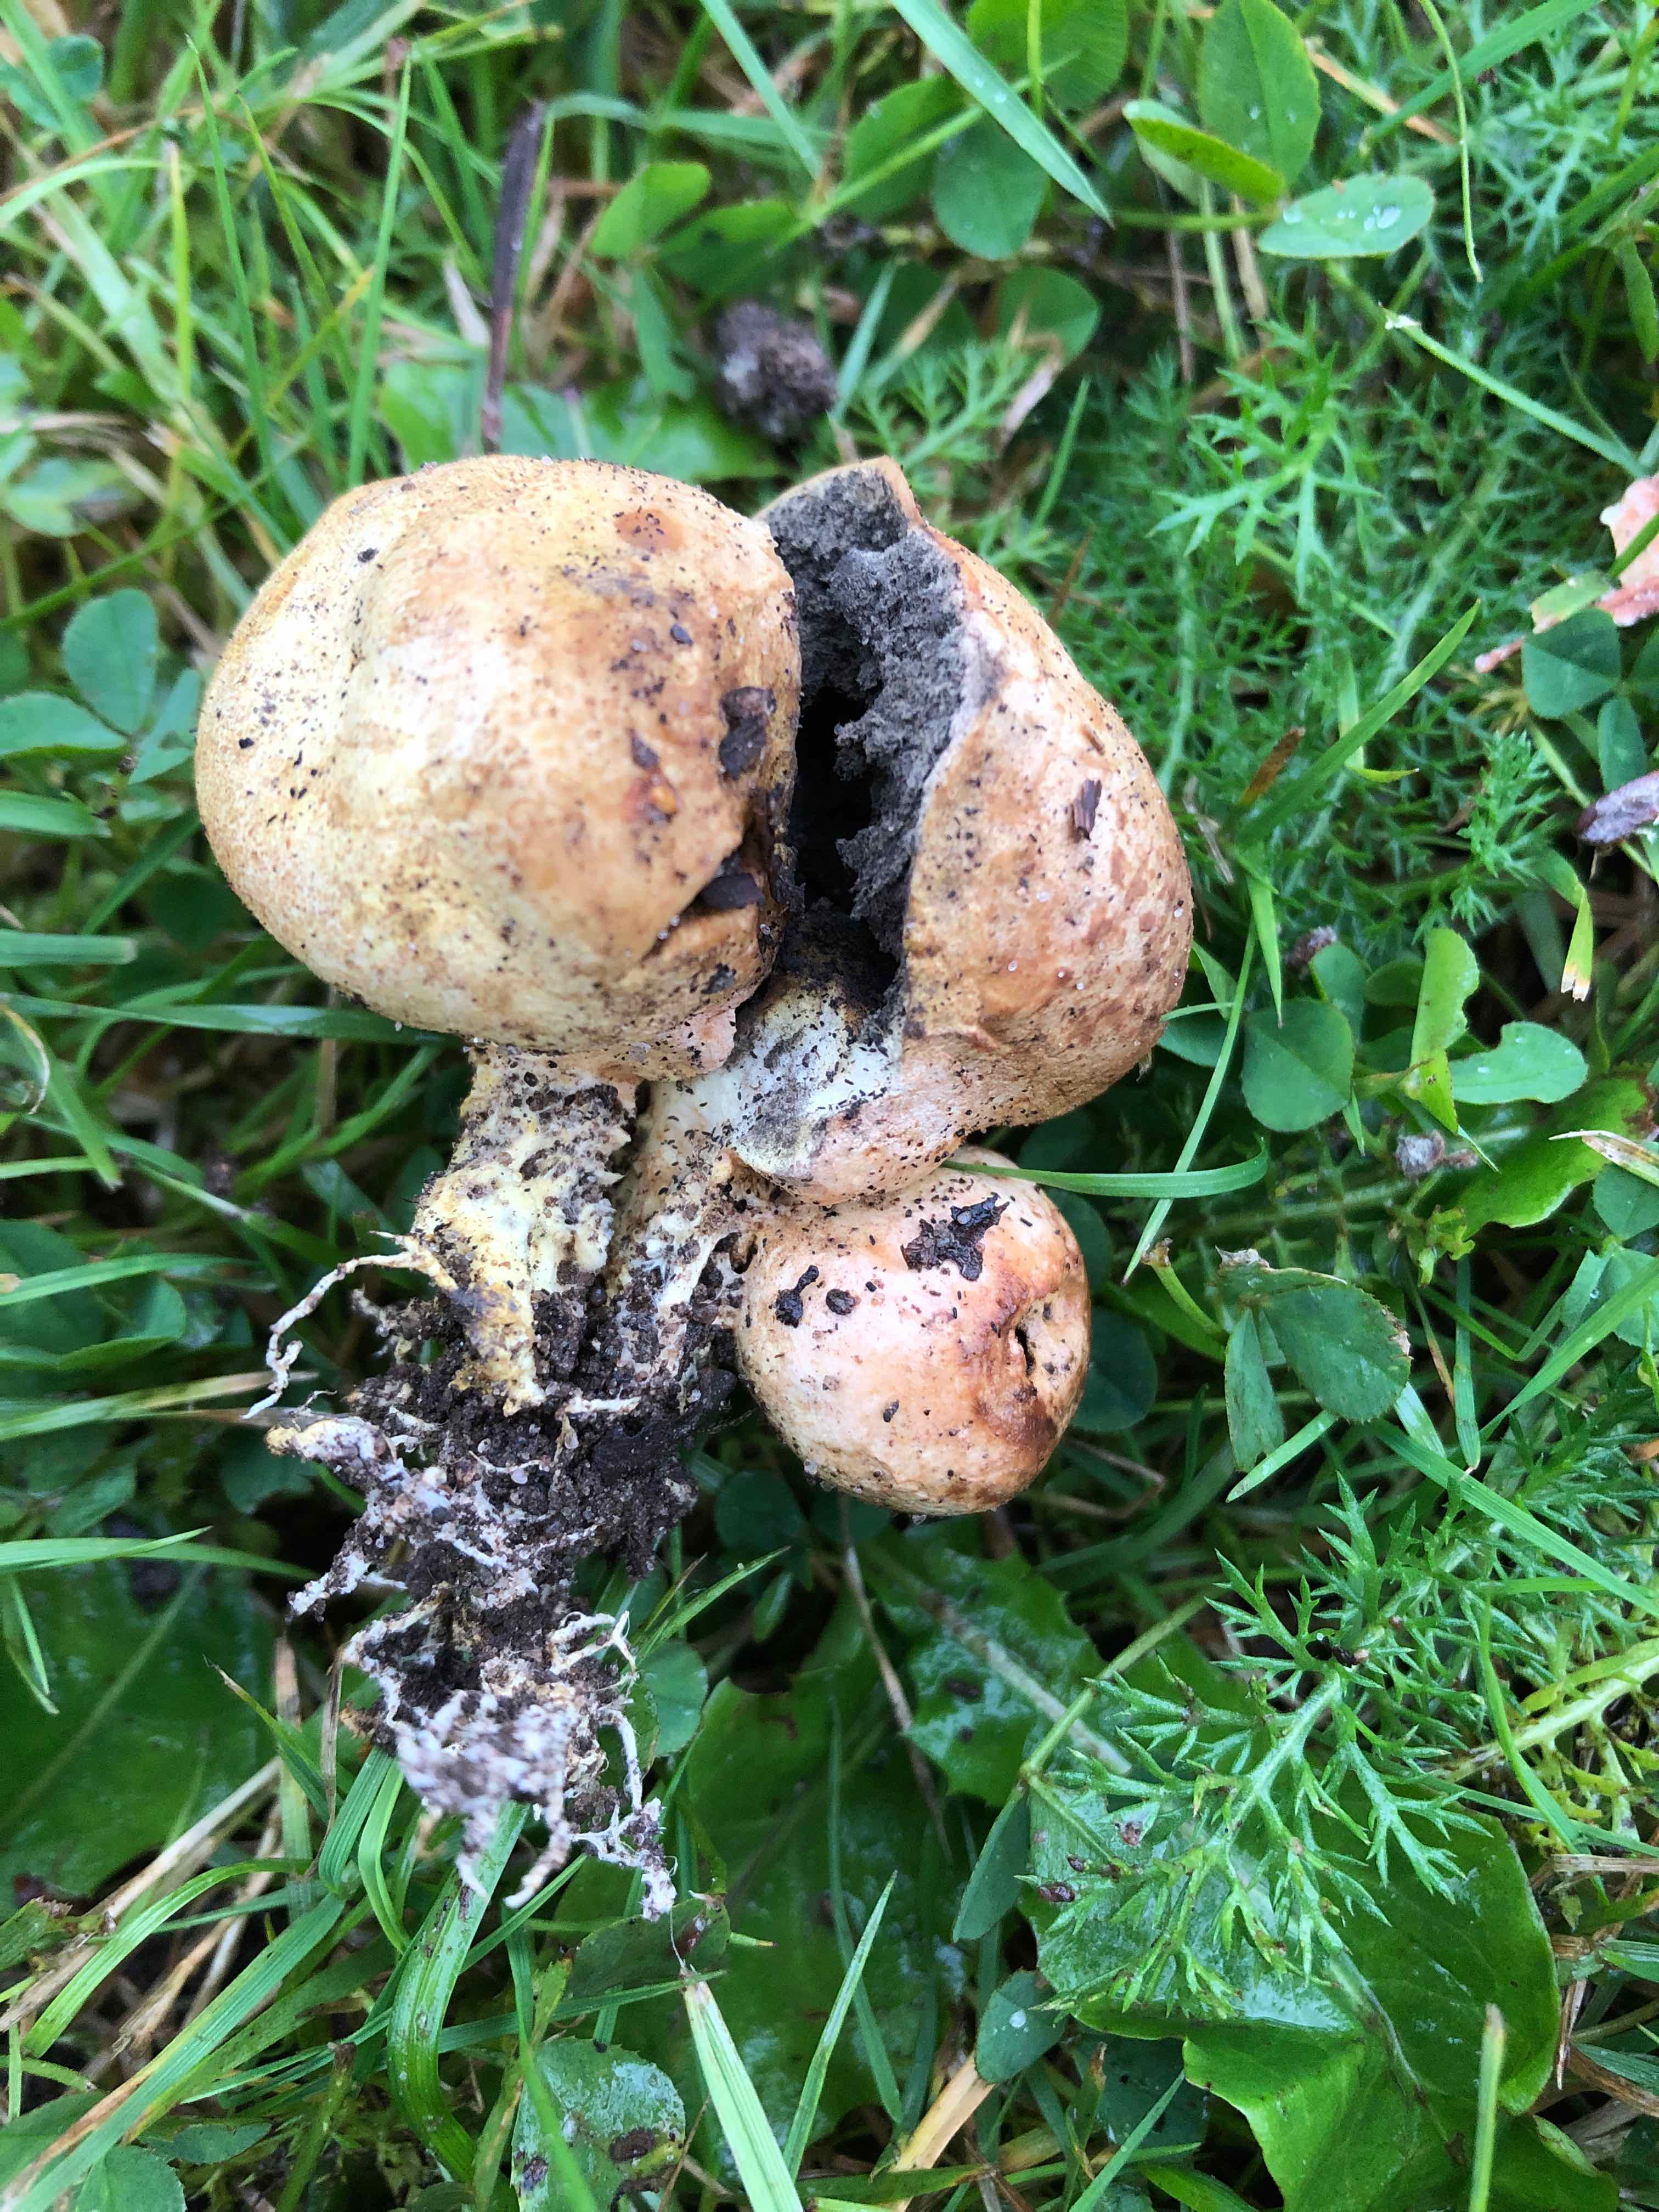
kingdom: Fungi
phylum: Basidiomycota
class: Agaricomycetes
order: Boletales
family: Sclerodermataceae
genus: Scleroderma
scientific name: Scleroderma
